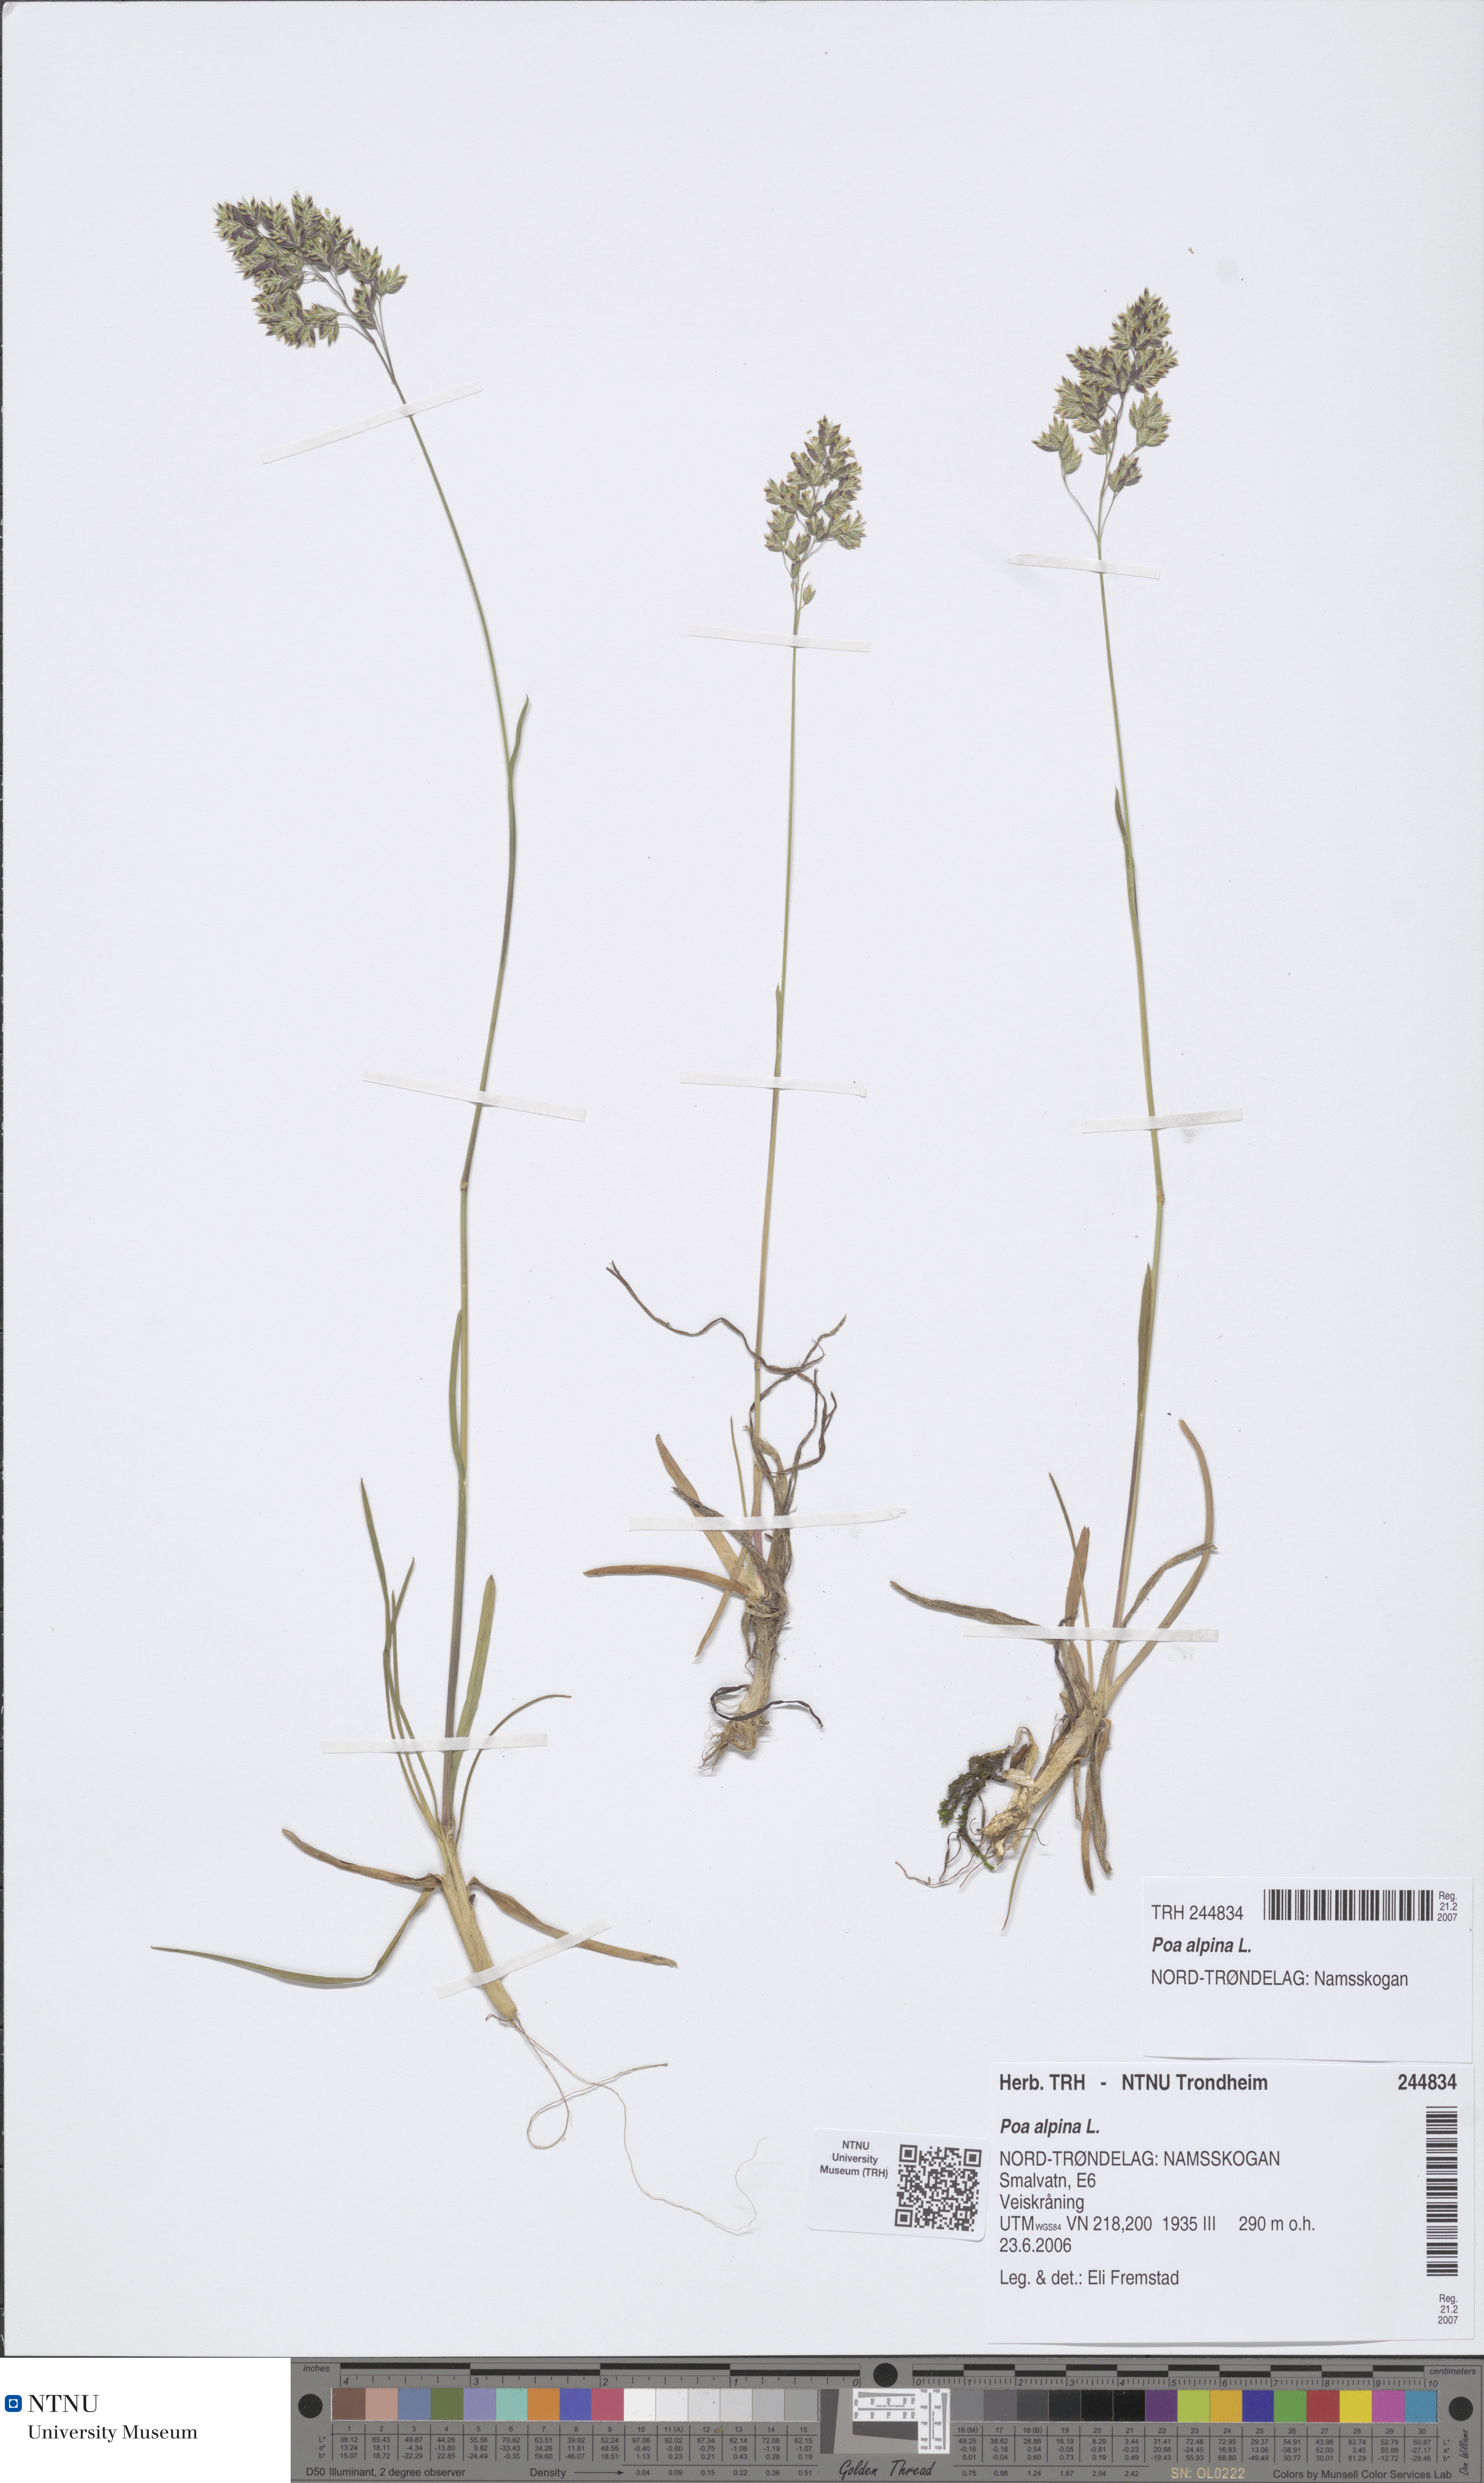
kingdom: Plantae
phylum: Tracheophyta
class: Liliopsida
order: Poales
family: Poaceae
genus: Poa
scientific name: Poa alpina
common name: Alpine bluegrass
